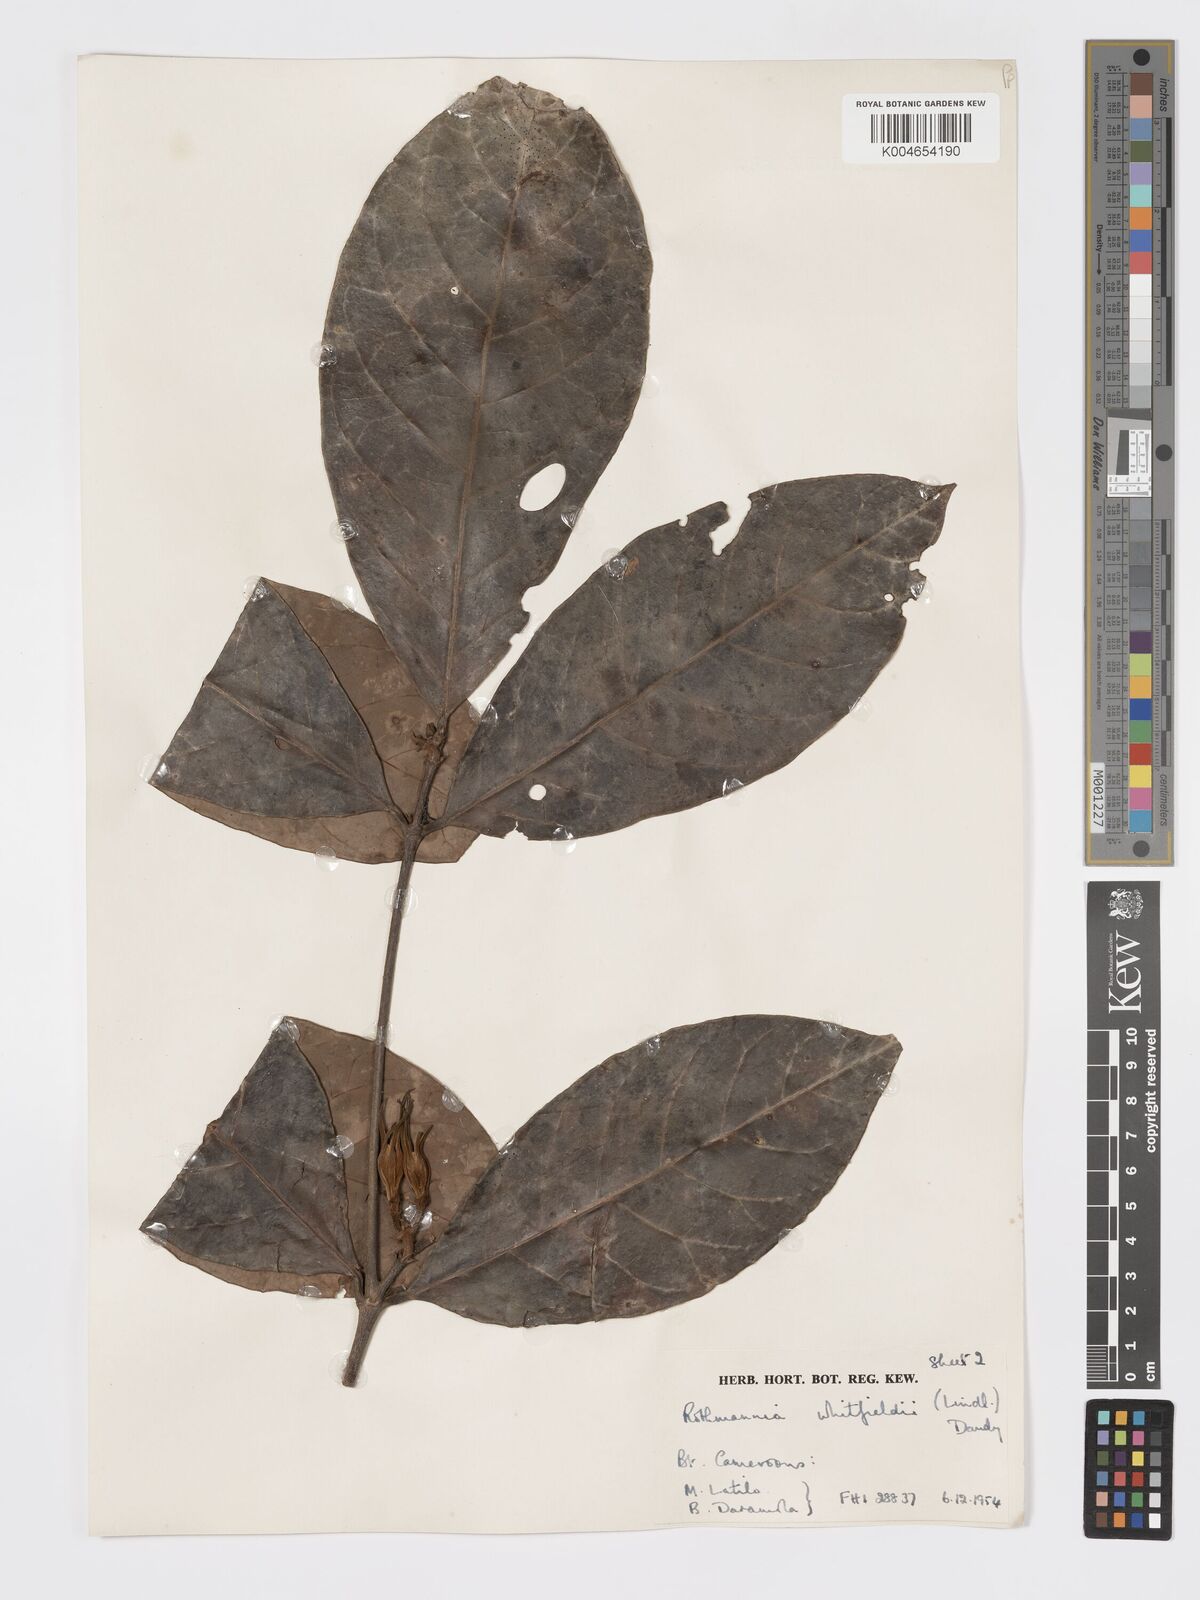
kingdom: Plantae
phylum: Tracheophyta
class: Magnoliopsida
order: Gentianales
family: Rubiaceae
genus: Rothmannia
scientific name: Rothmannia whitfieldii
